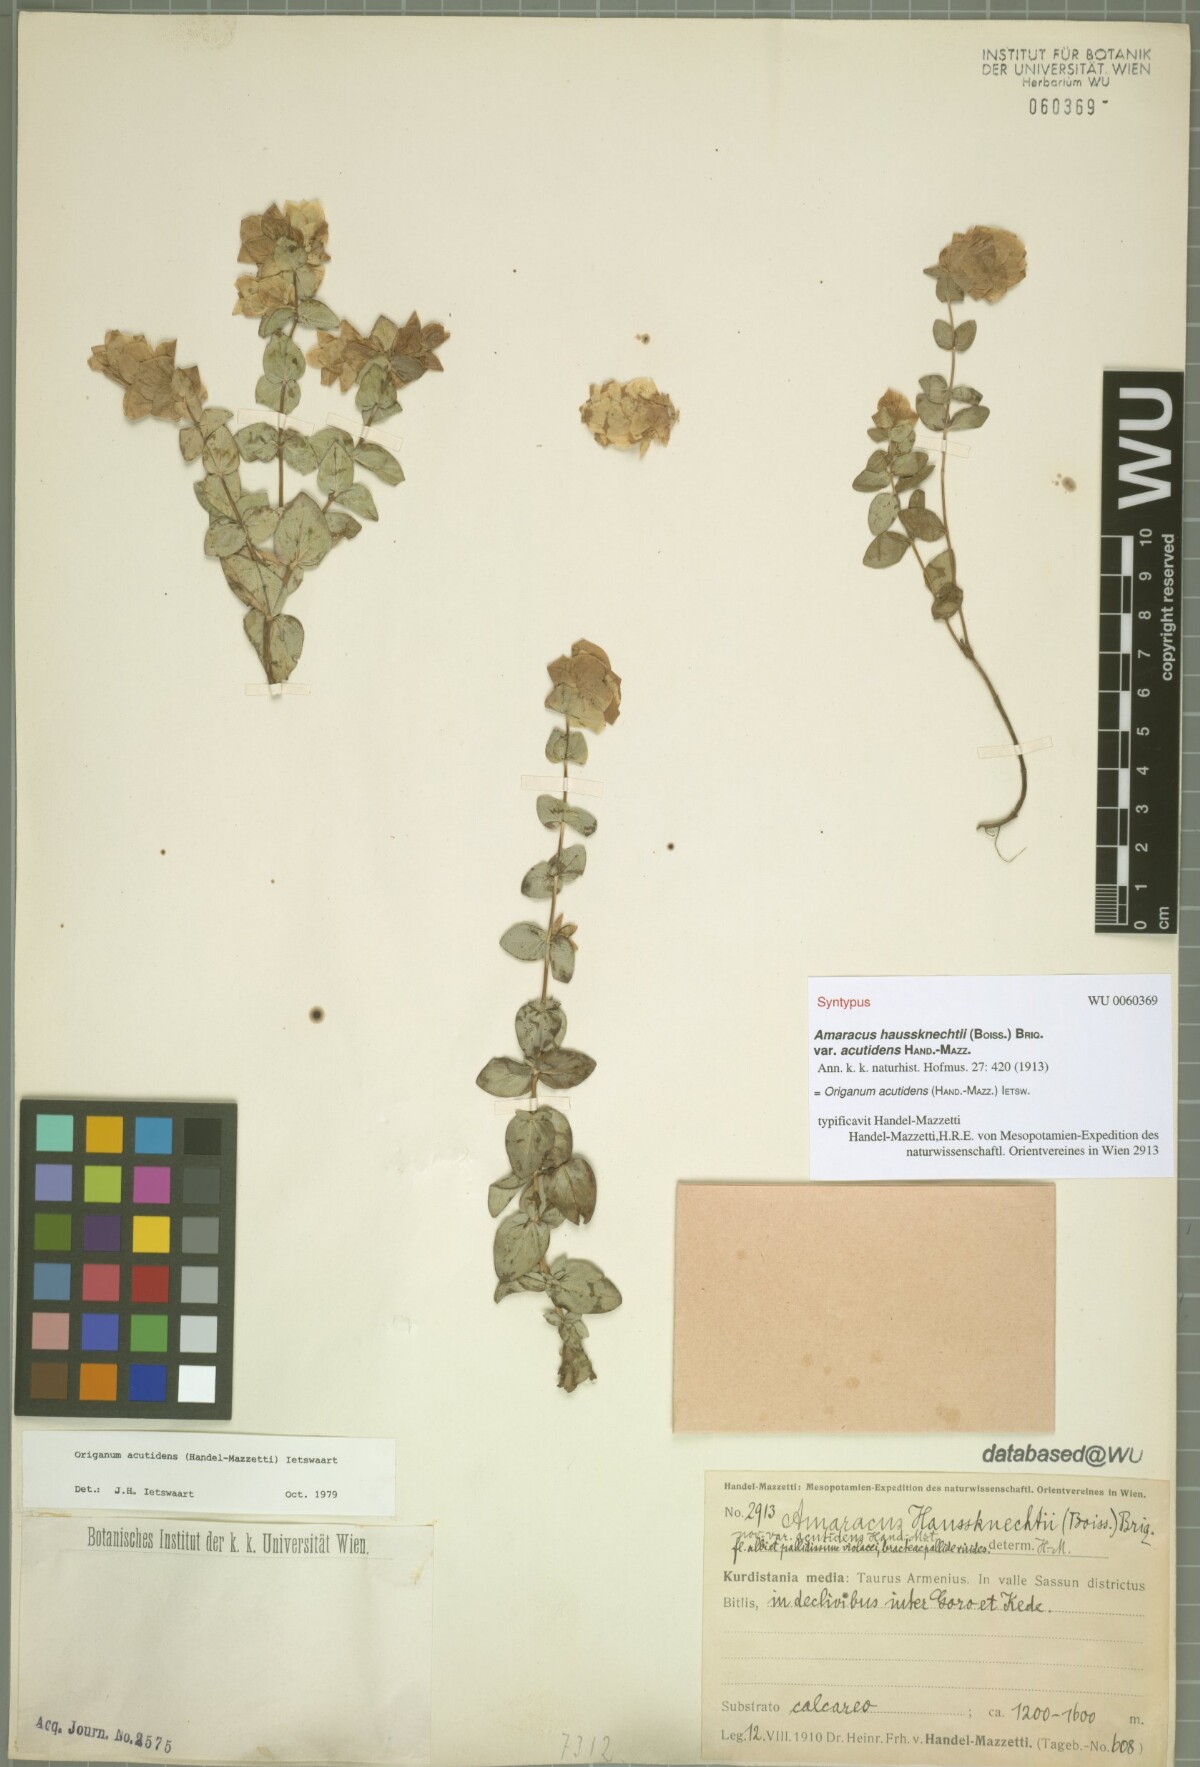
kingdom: Plantae
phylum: Tracheophyta
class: Magnoliopsida
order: Lamiales
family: Lamiaceae
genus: Origanum
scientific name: Origanum acutidens
